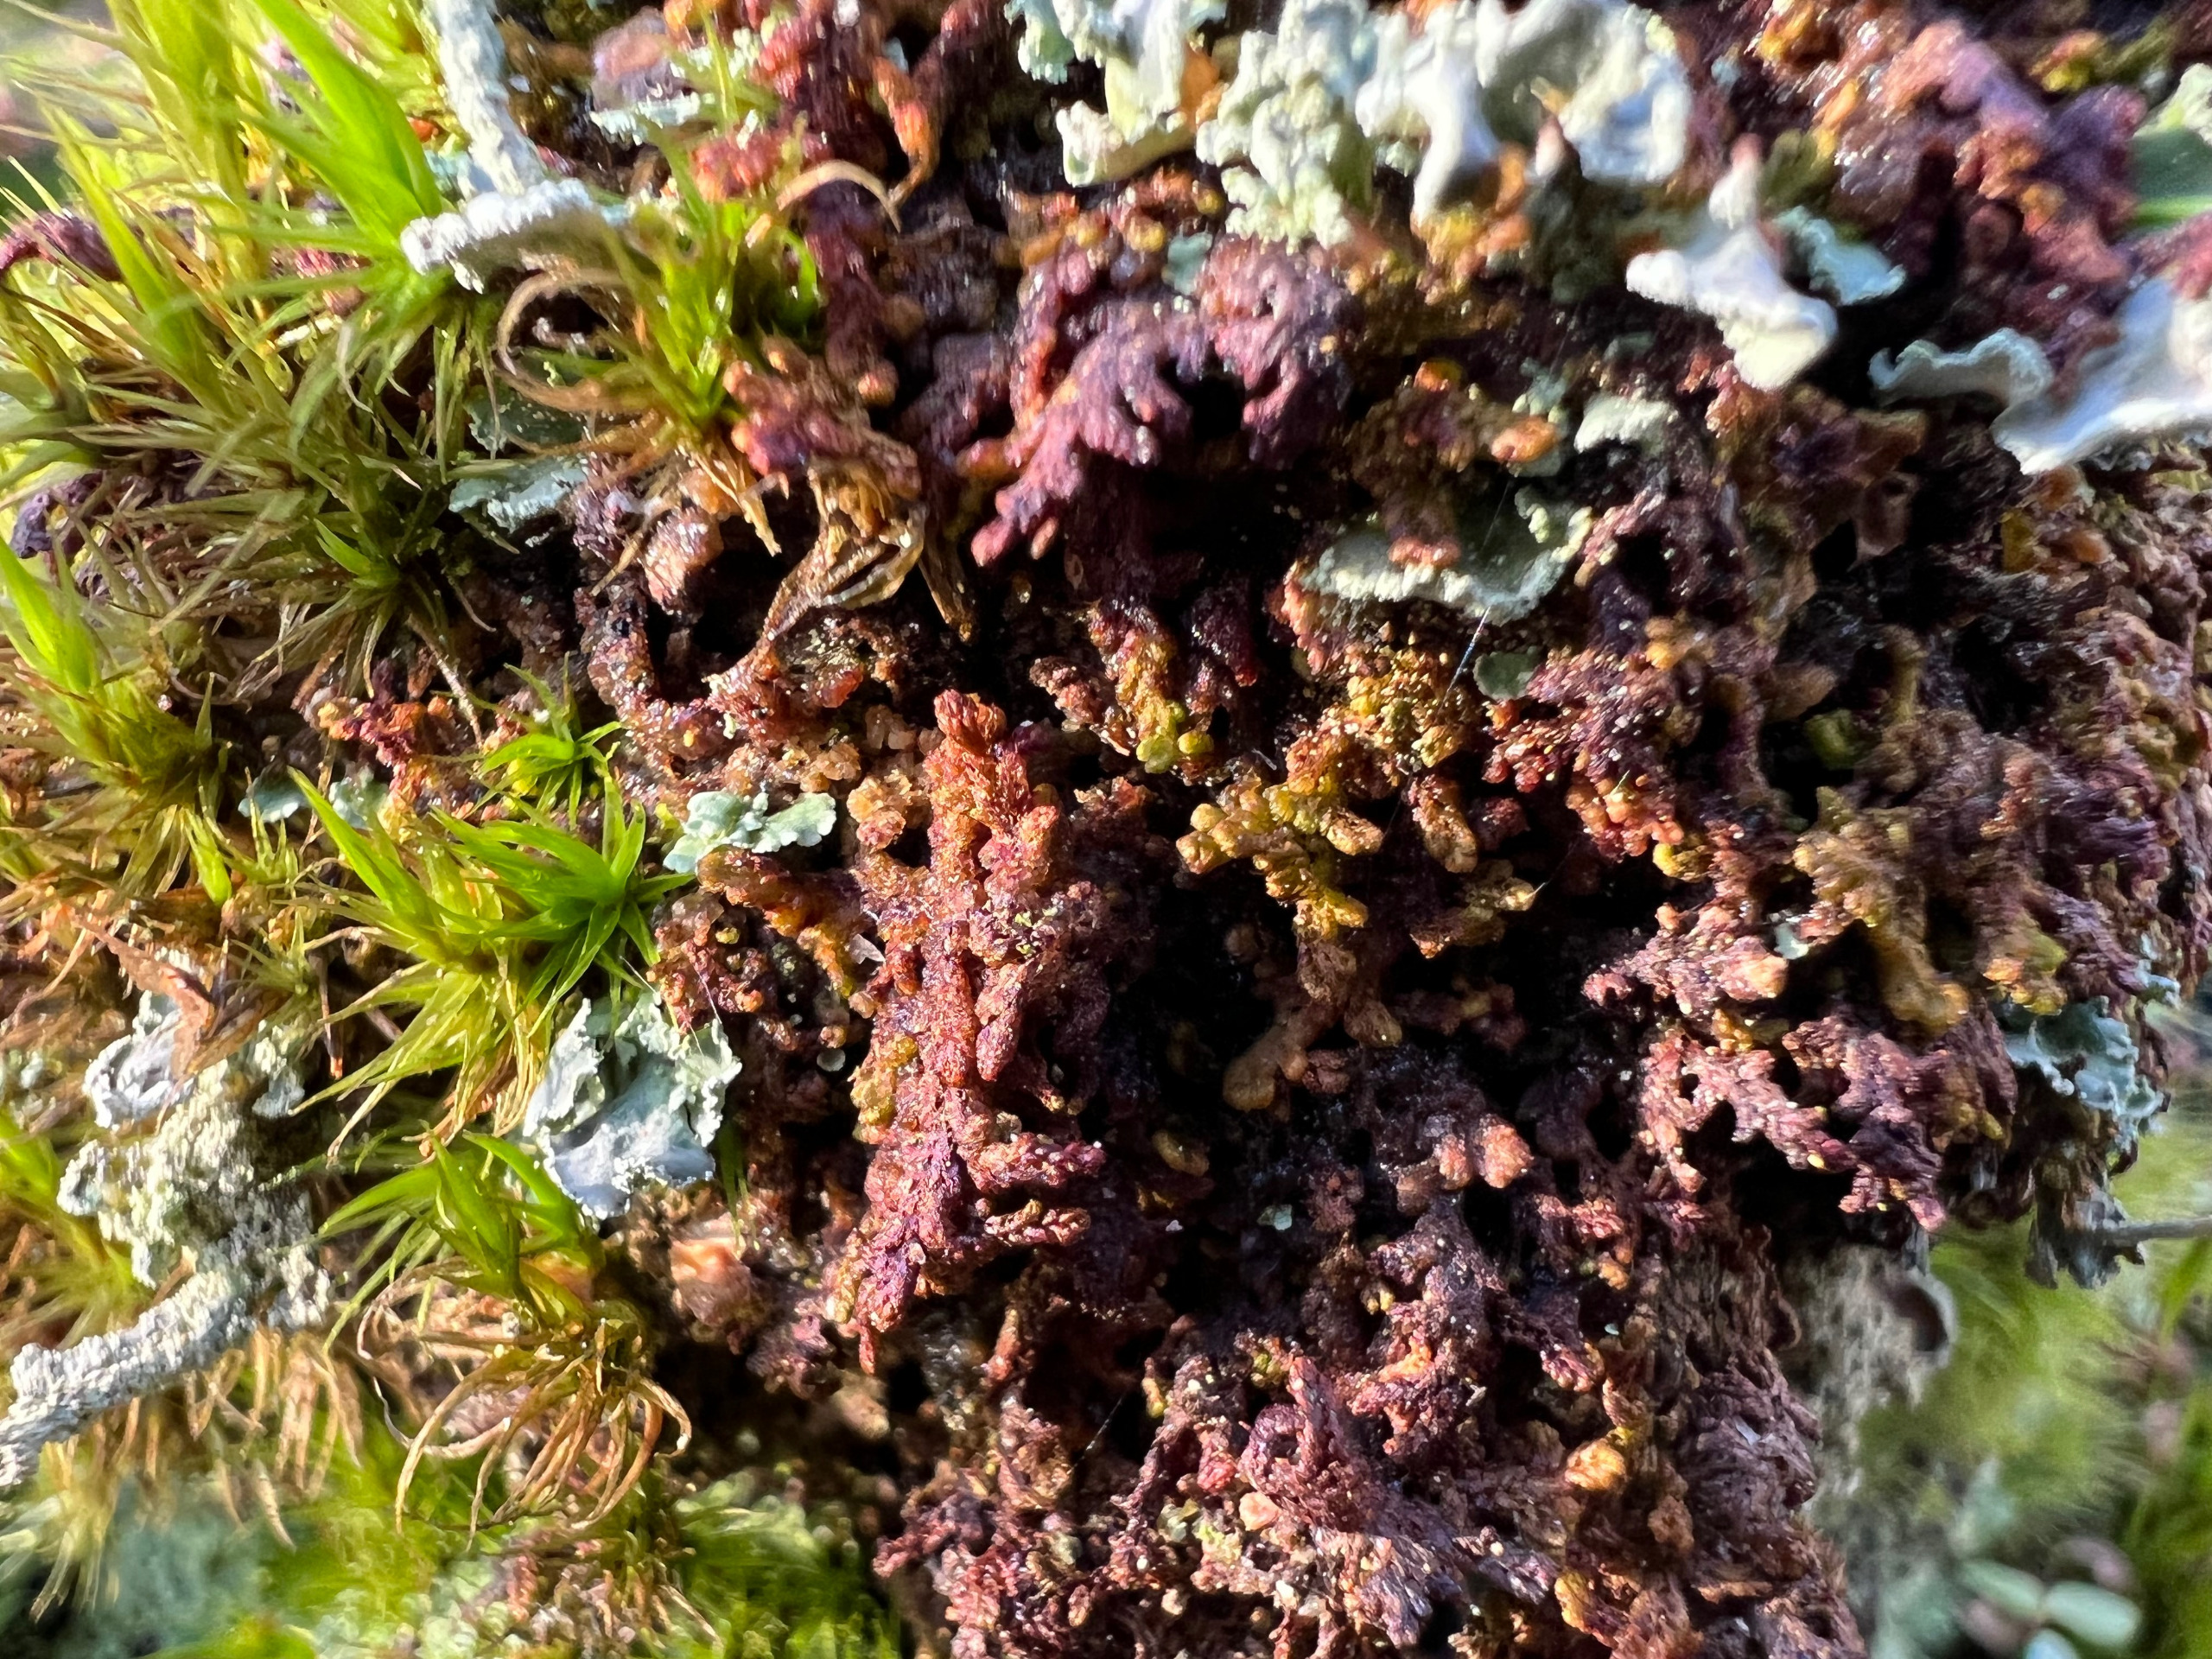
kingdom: Plantae
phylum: Marchantiophyta
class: Jungermanniopsida
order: Ptilidiales
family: Ptilidiaceae
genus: Ptilidium
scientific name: Ptilidium pulcherrimum
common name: Stub-frynsemos
